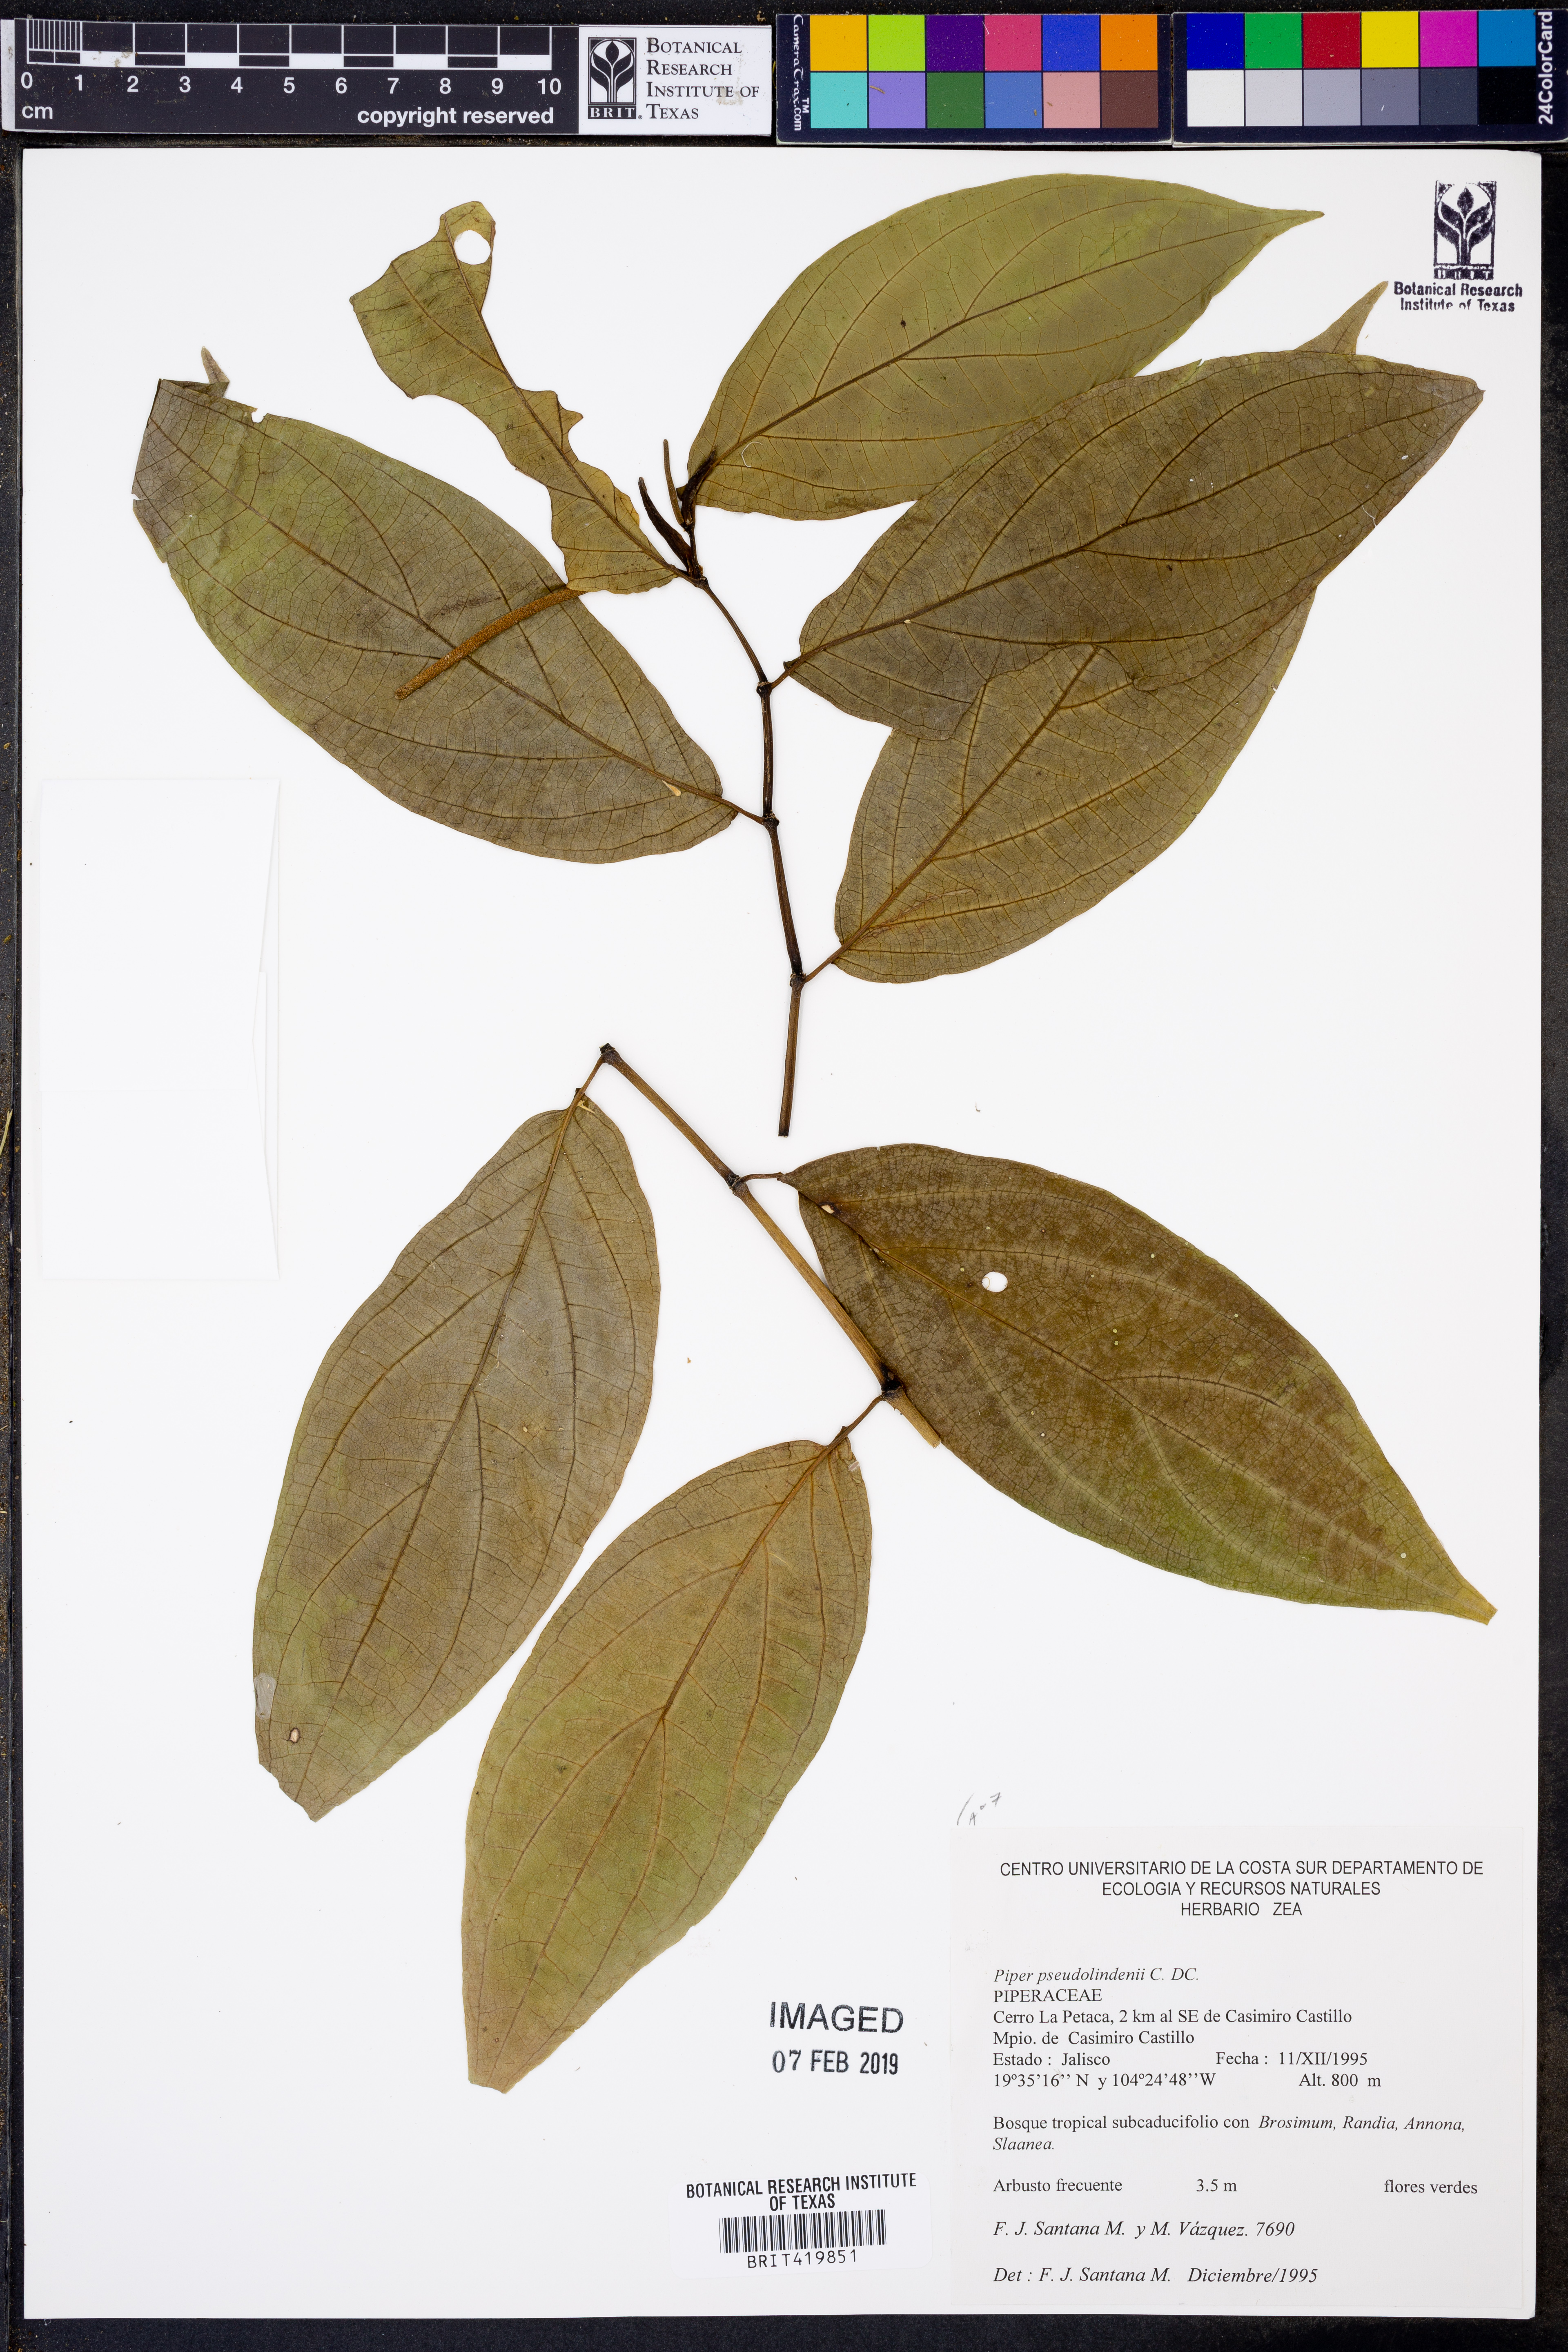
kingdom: Plantae
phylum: Tracheophyta
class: Magnoliopsida
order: Piperales
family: Piperaceae
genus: Piper
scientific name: Piper pseudolindenii
